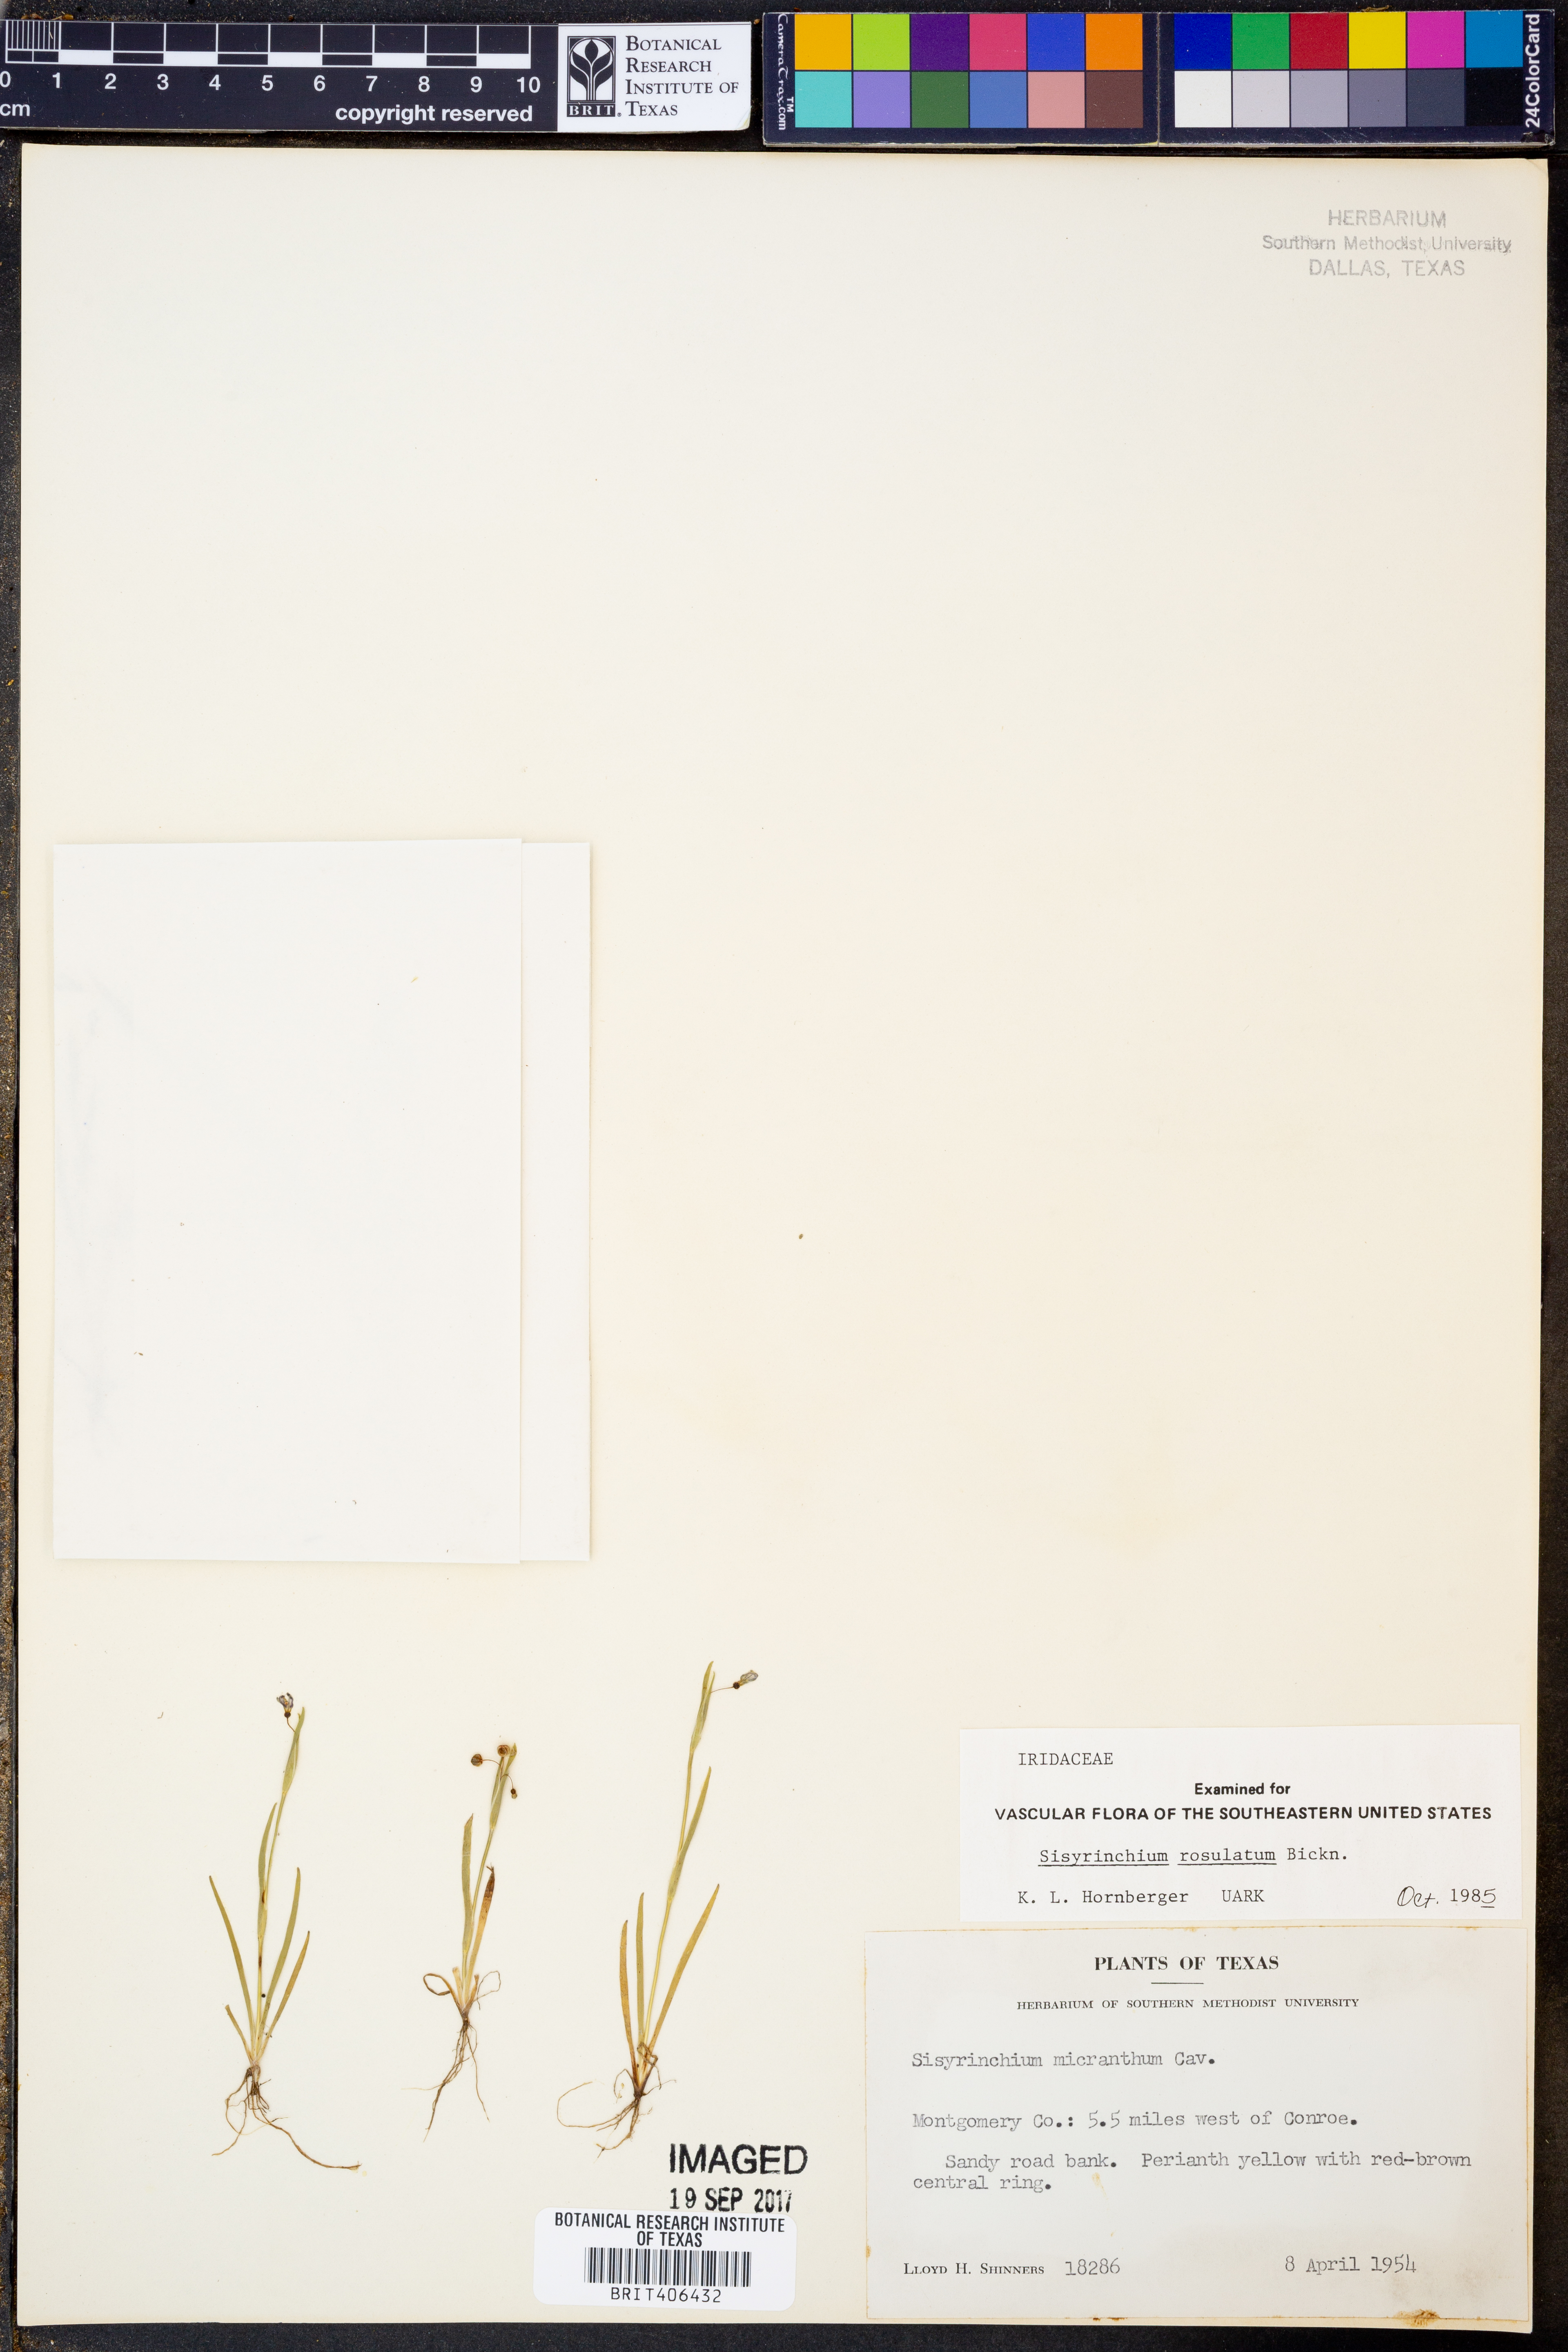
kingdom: Plantae
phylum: Tracheophyta
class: Liliopsida
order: Asparagales
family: Iridaceae
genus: Sisyrinchium
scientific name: Sisyrinchium rosulatum
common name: Annual blue-eyed grass
